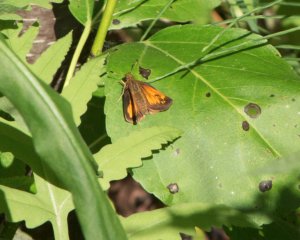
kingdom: Animalia
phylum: Arthropoda
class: Insecta
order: Lepidoptera
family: Hesperiidae
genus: Lon
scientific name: Lon hobomok
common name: Hobomok Skipper
